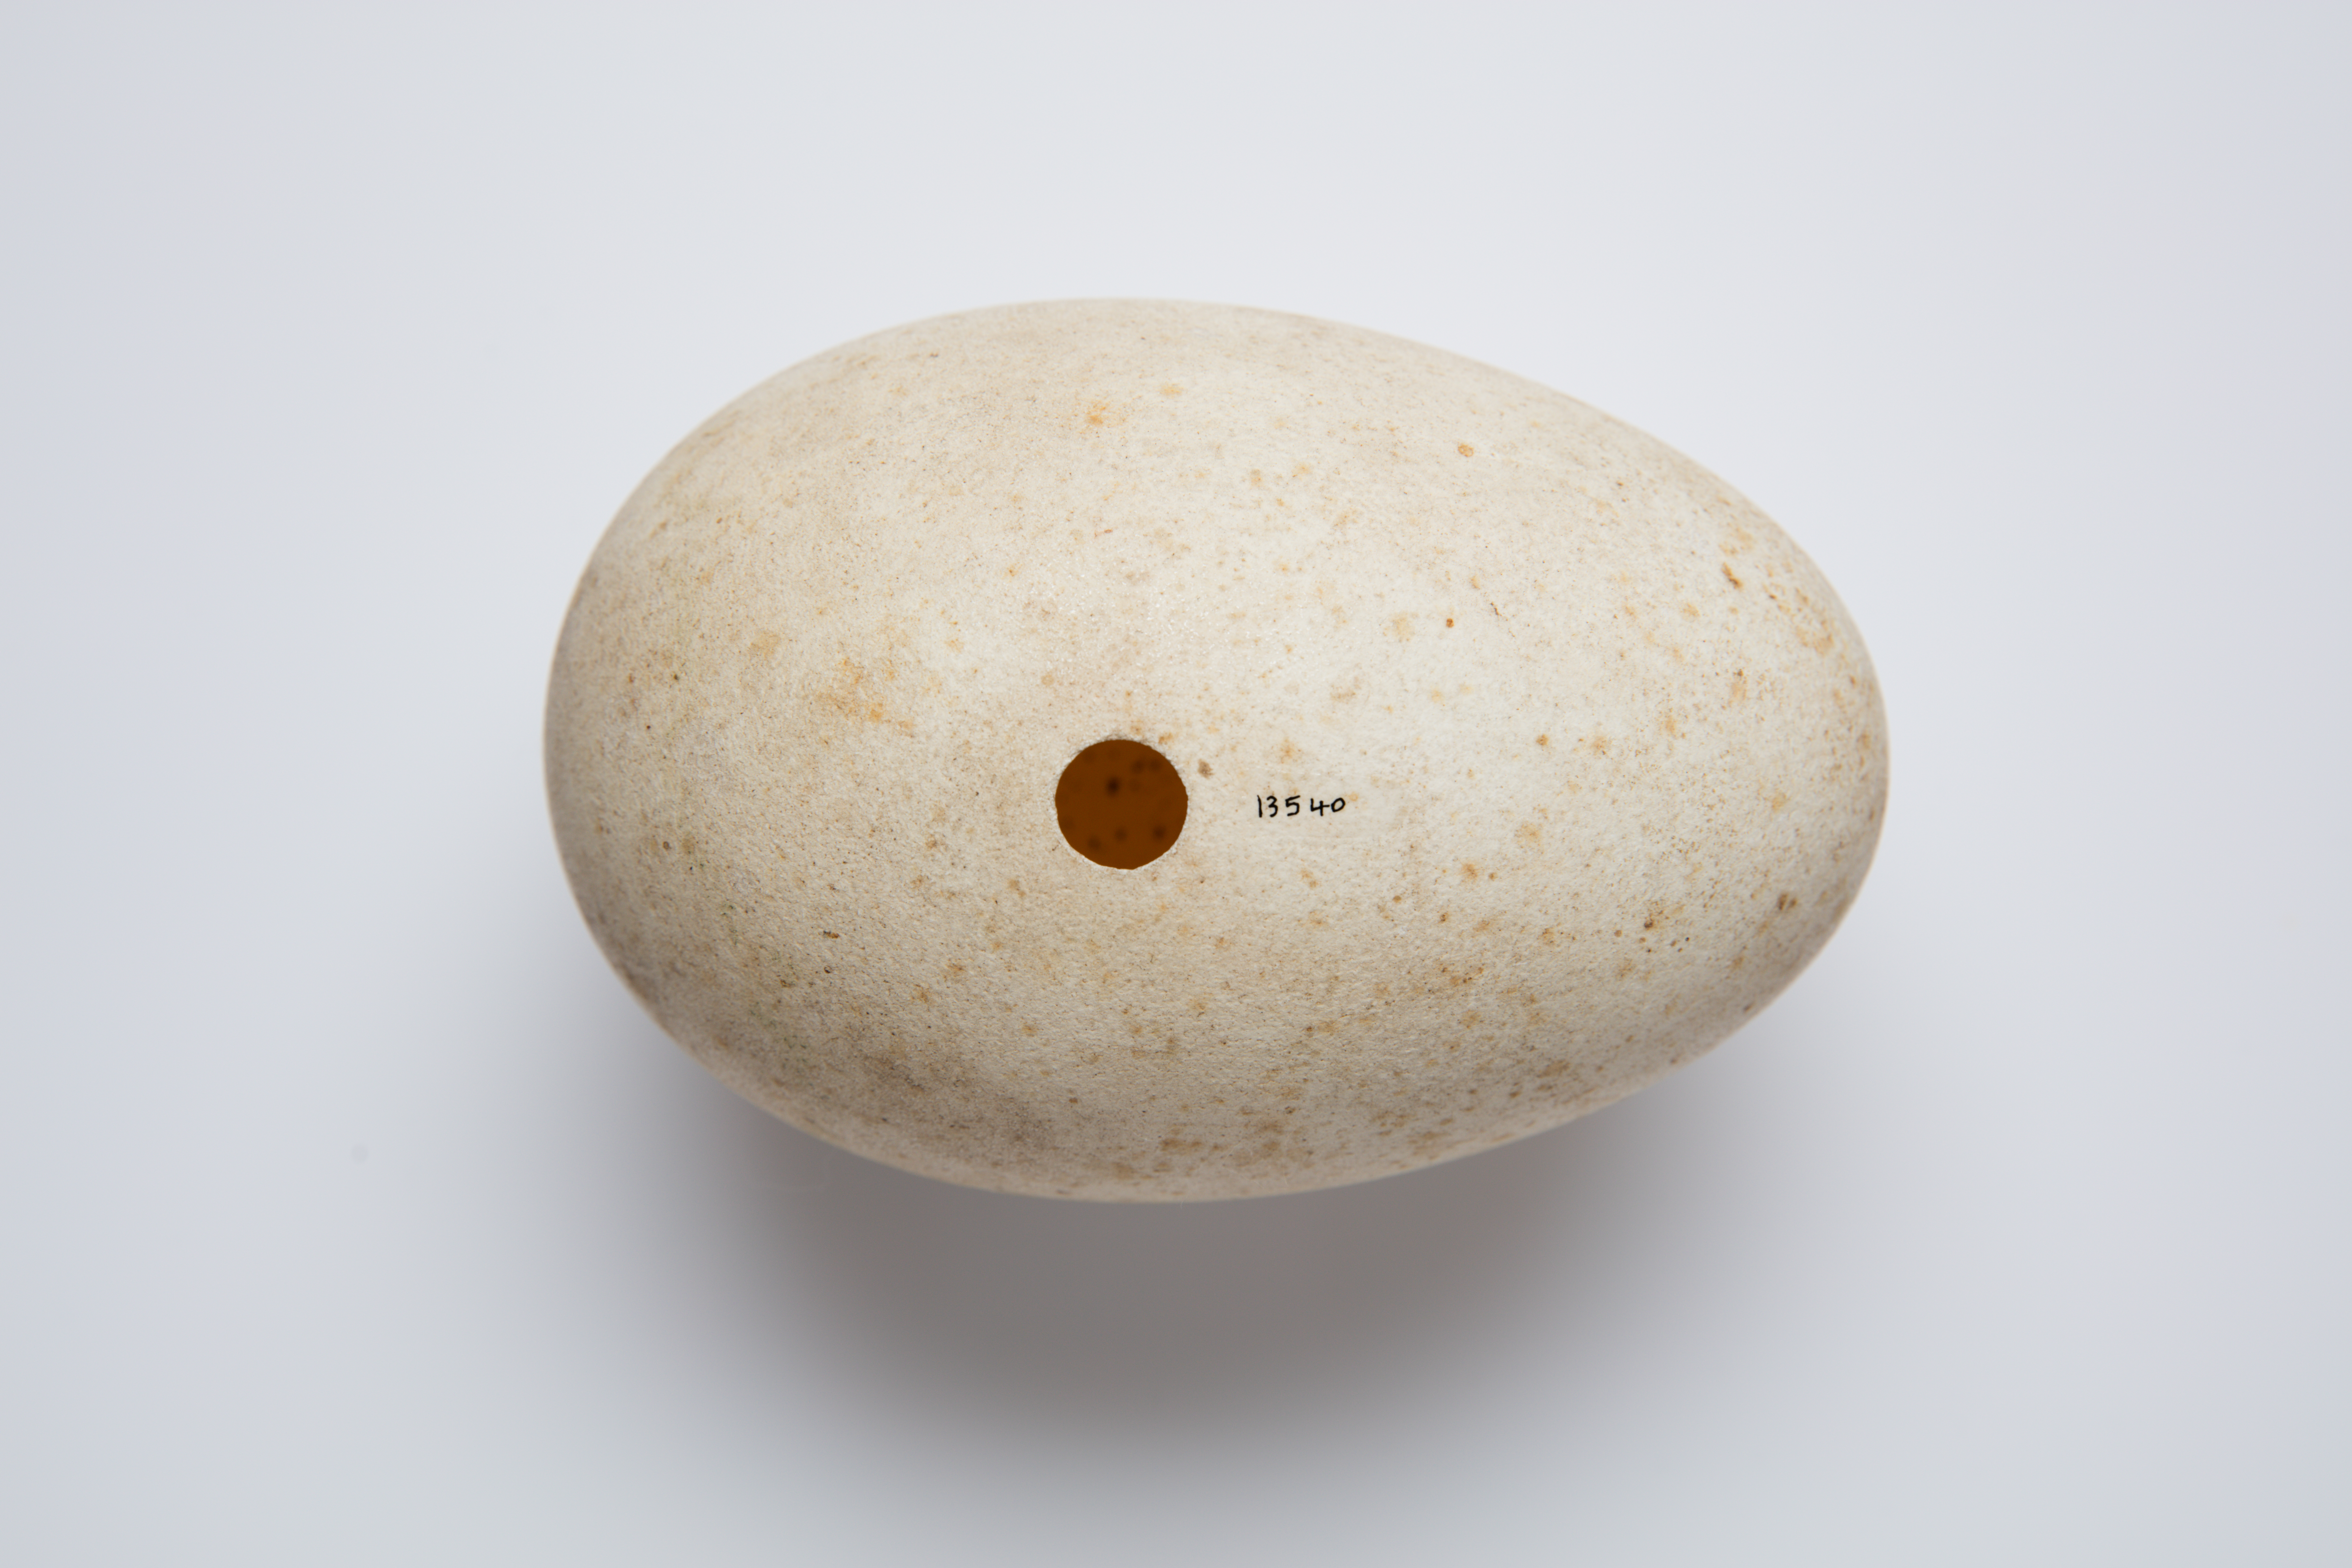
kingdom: Animalia
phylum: Chordata
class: Aves
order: Apterygiformes
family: Apterygidae
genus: Apteryx
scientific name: Apteryx mantelli
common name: North island brown kiwi
